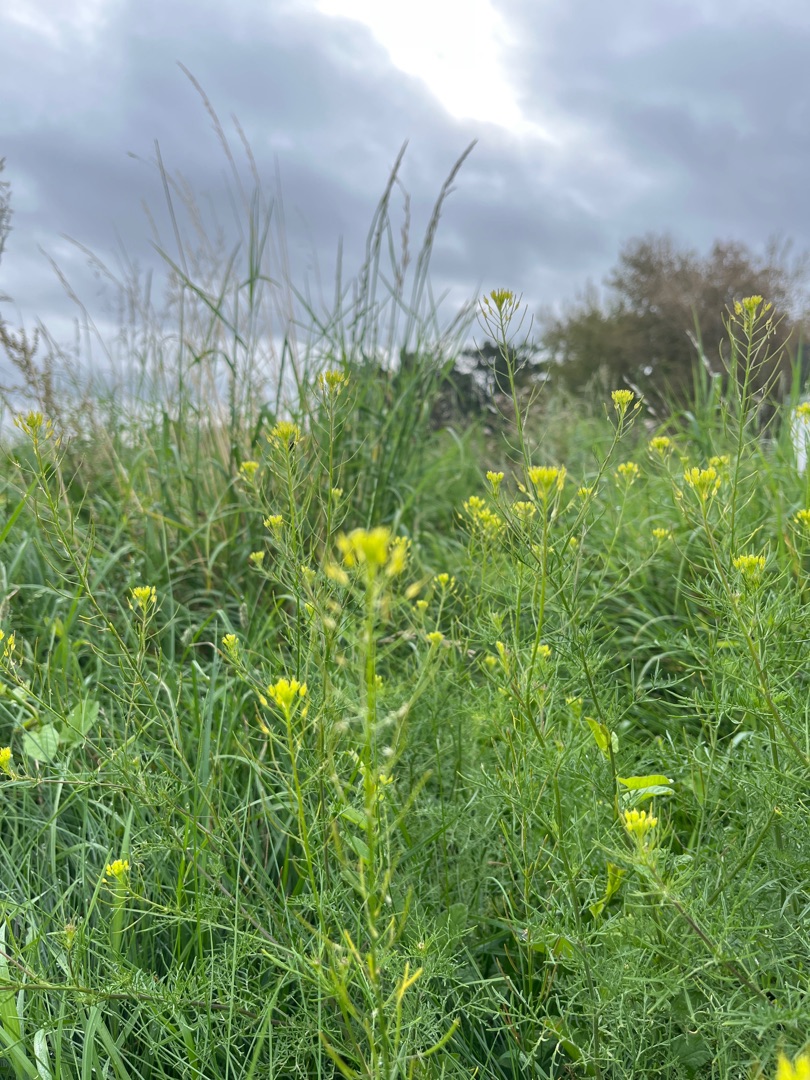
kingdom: Plantae
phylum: Tracheophyta
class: Magnoliopsida
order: Brassicales
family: Brassicaceae
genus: Descurainia
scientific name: Descurainia sophia
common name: Finbladet vejsennep
